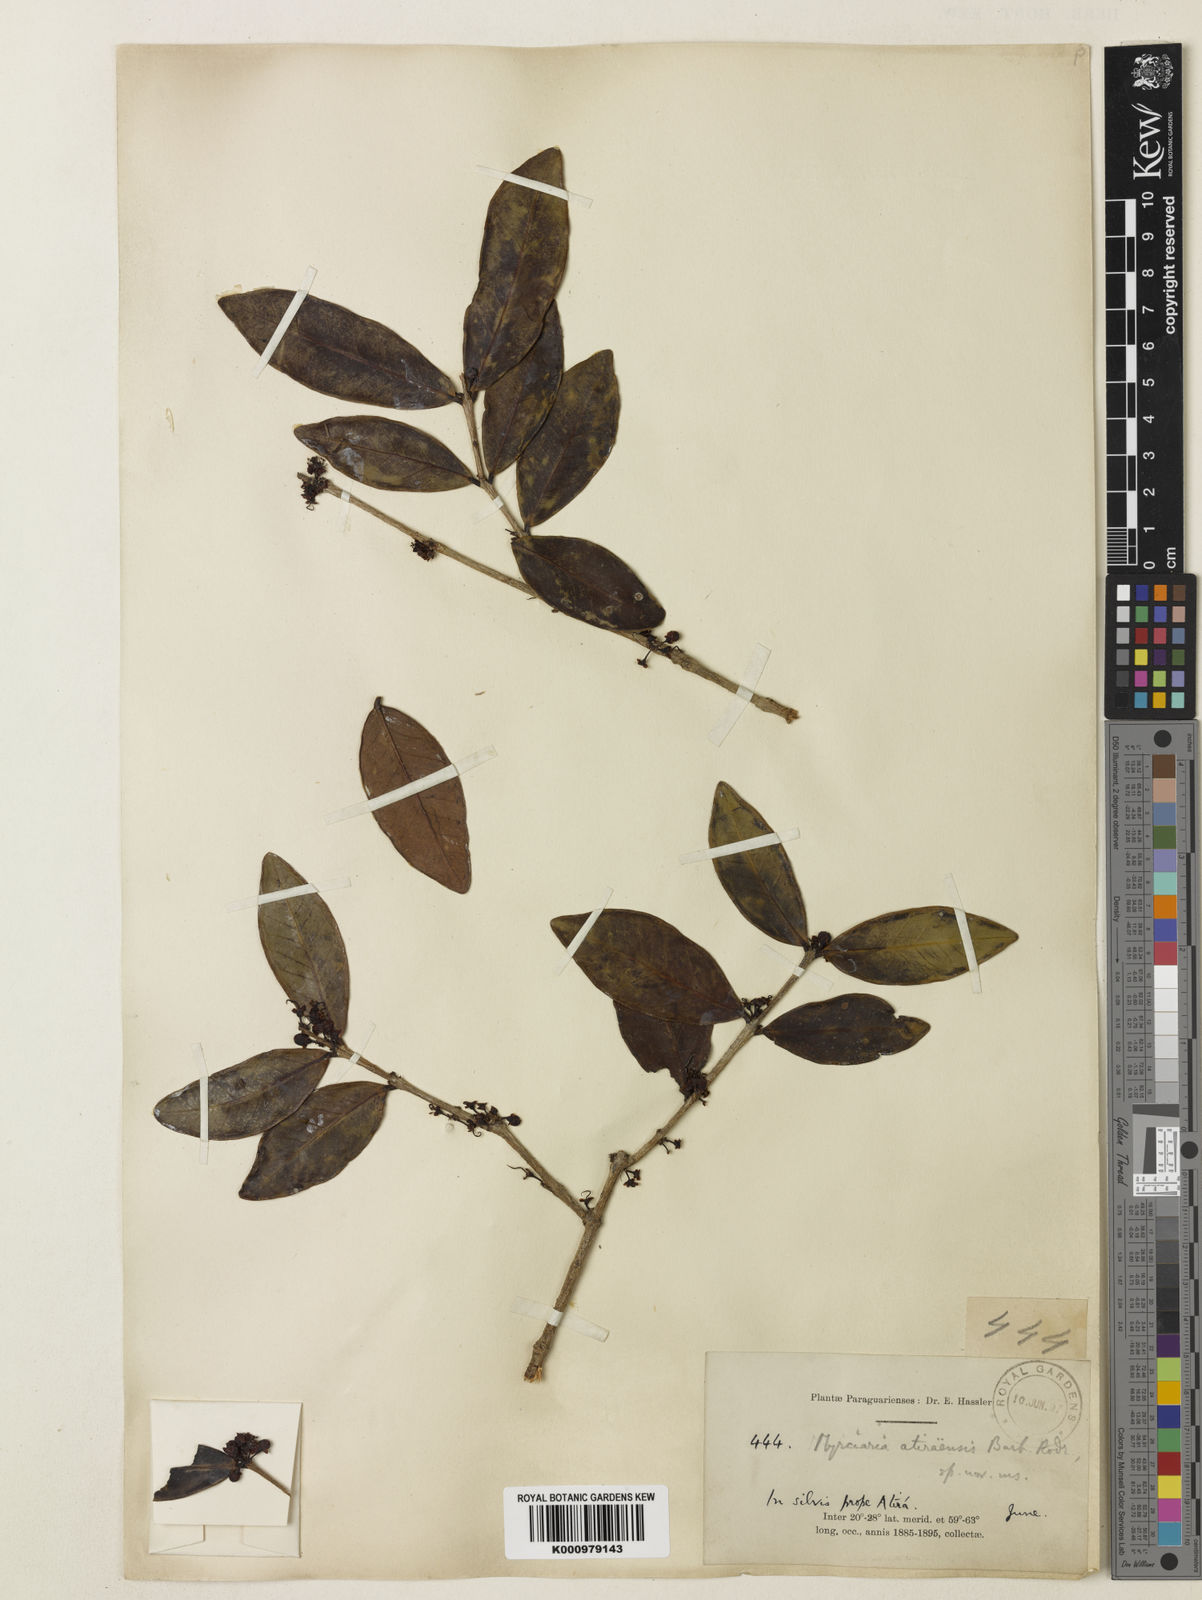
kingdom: Plantae
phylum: Tracheophyta
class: Magnoliopsida
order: Myrtales
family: Myrtaceae
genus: Eugenia
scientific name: Eugenia bimarginata
